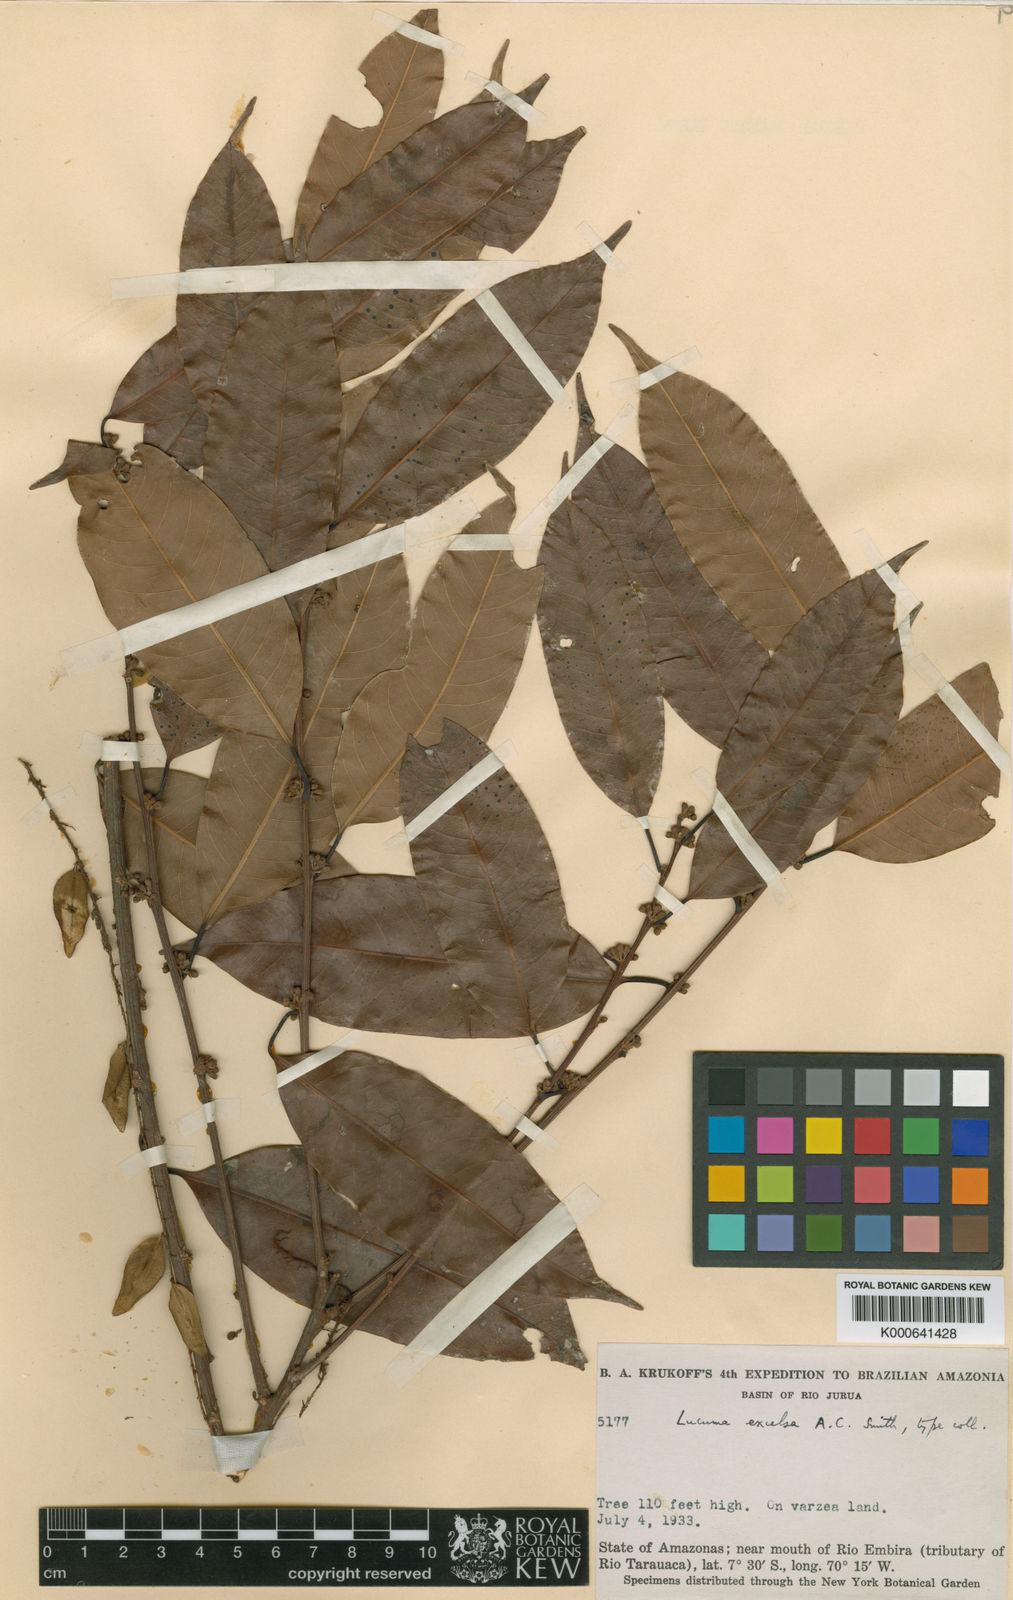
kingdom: Plantae
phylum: Tracheophyta
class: Magnoliopsida
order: Ericales
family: Sapotaceae
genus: Pouteria
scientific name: Pouteria procera
